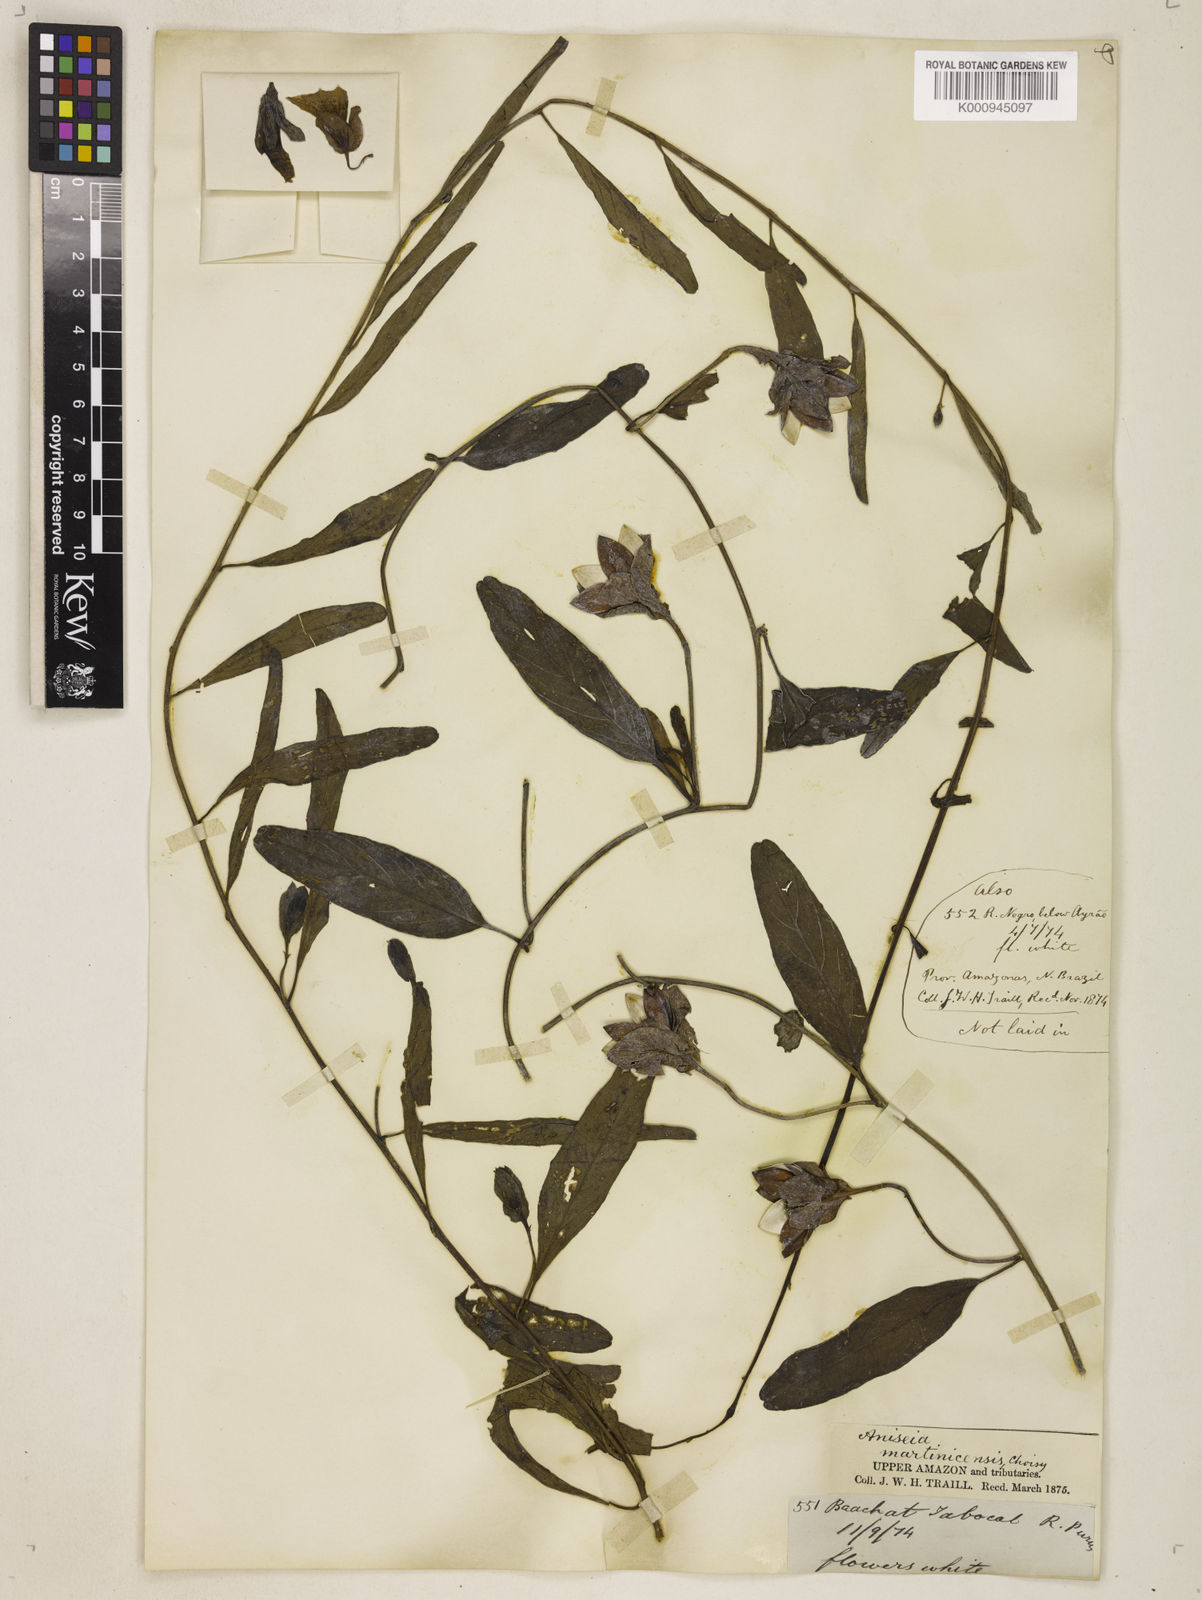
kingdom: Plantae
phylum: Tracheophyta
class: Magnoliopsida
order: Solanales
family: Convolvulaceae
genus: Aniseia
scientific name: Aniseia martinicensis
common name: Kulayadambu
